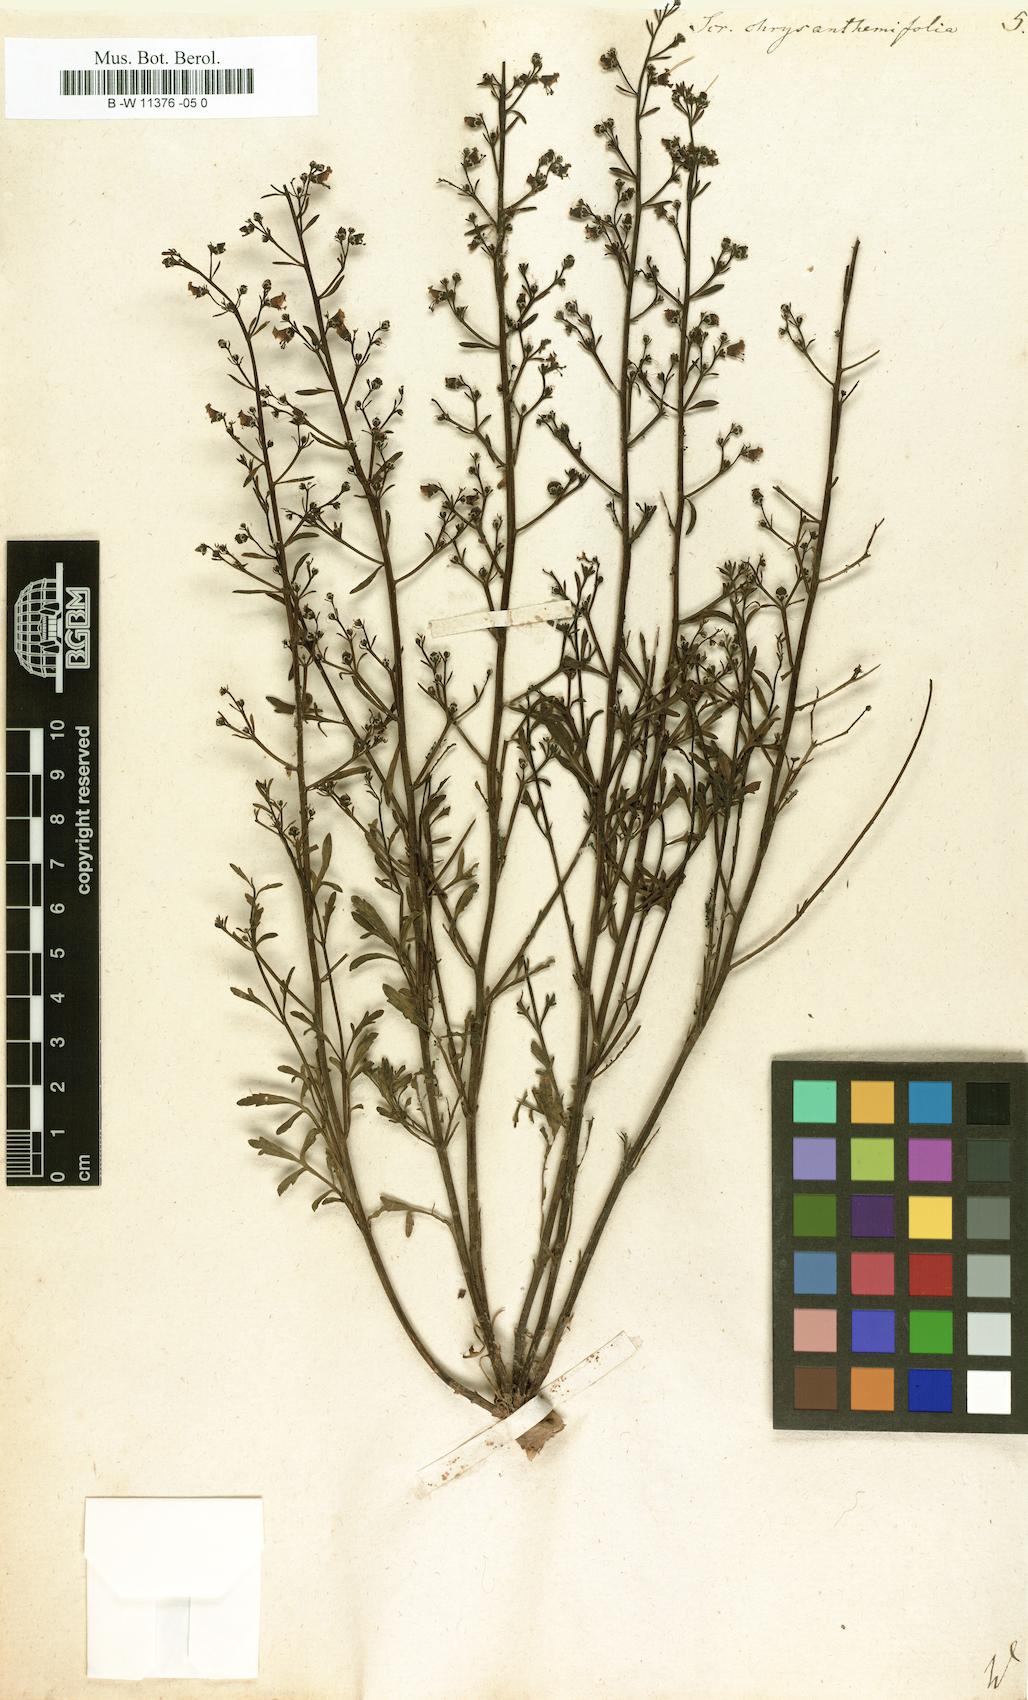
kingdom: Plantae
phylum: Tracheophyta
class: Magnoliopsida
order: Lamiales
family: Scrophulariaceae
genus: Scrophularia
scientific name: Scrophularia
